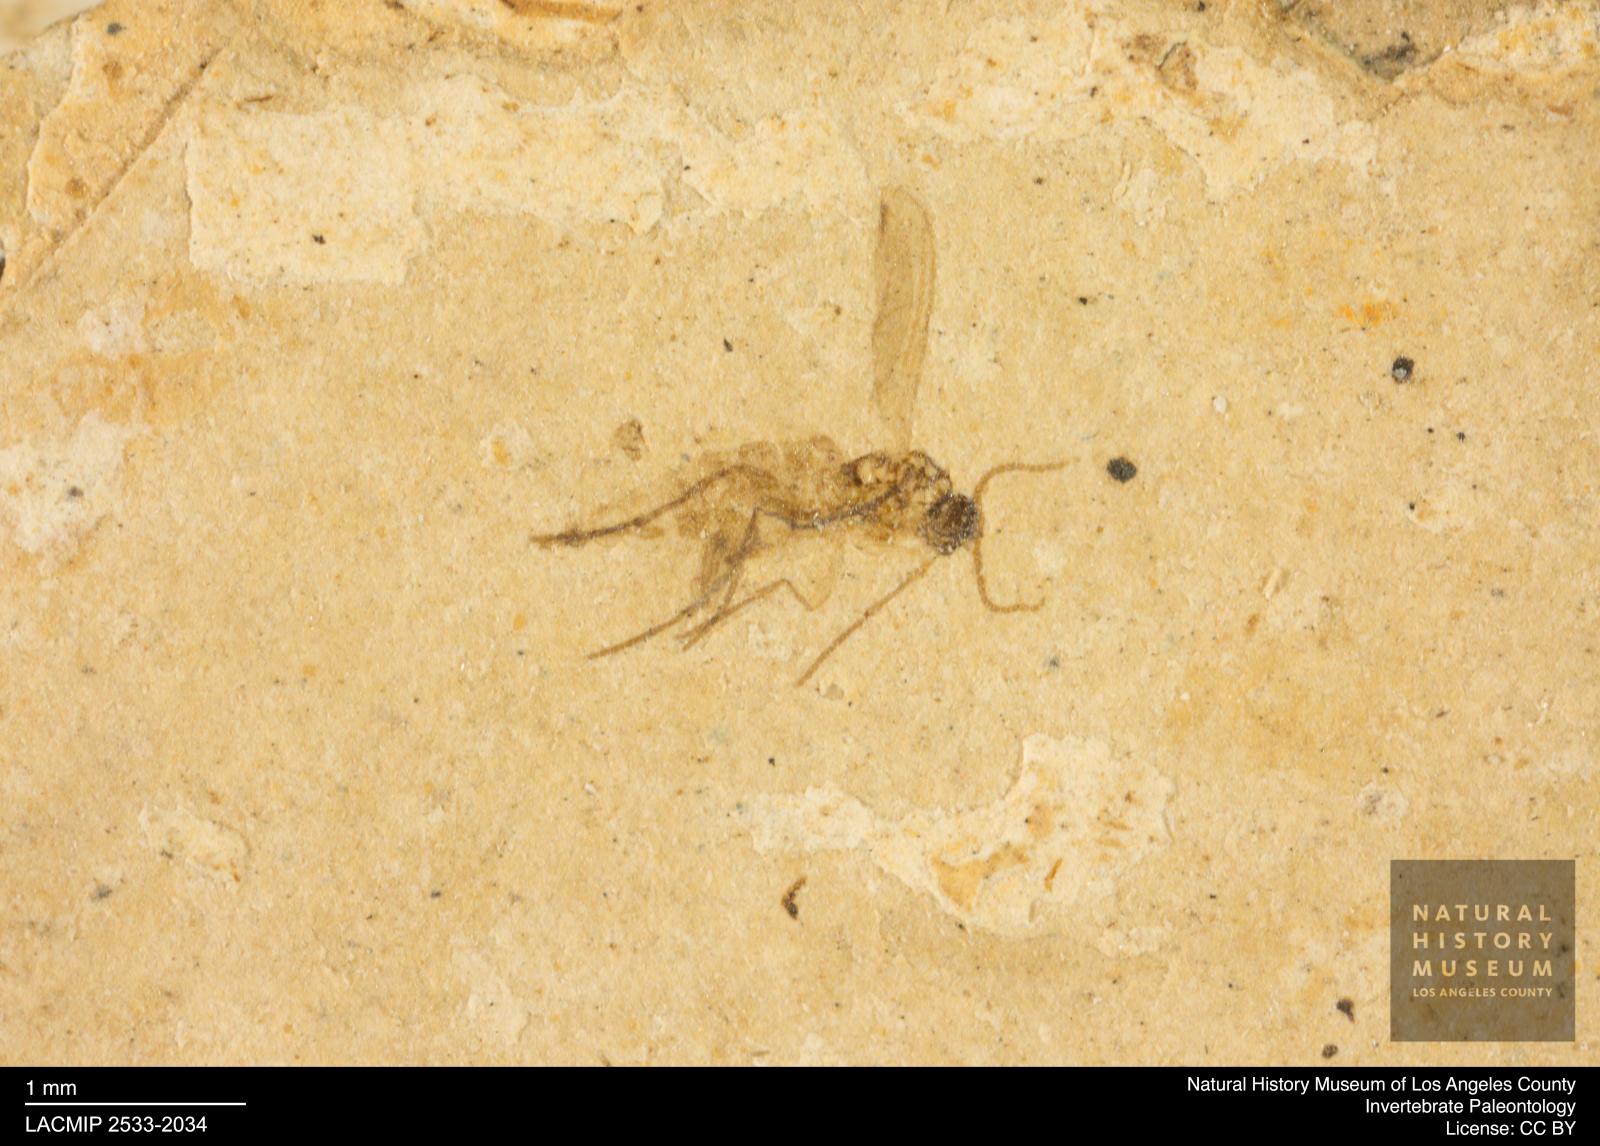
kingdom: Animalia
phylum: Arthropoda
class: Insecta
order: Diptera
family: Sciaridae
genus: Sciara
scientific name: Sciara
